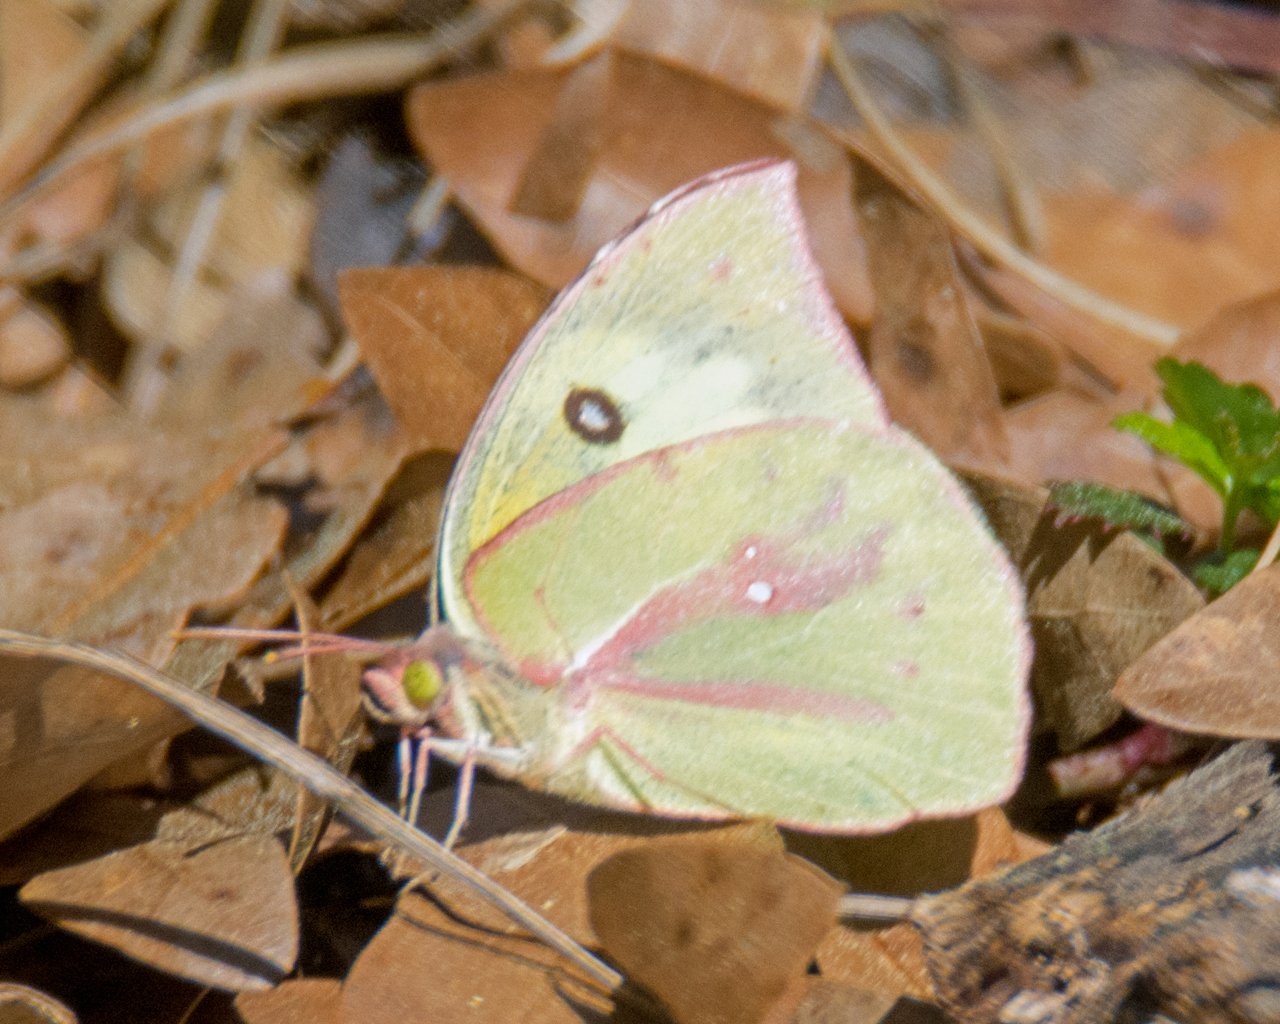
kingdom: Animalia
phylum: Arthropoda
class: Insecta
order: Lepidoptera
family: Pieridae
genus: Zerene
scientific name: Zerene cesonia
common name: Southern Dogface
